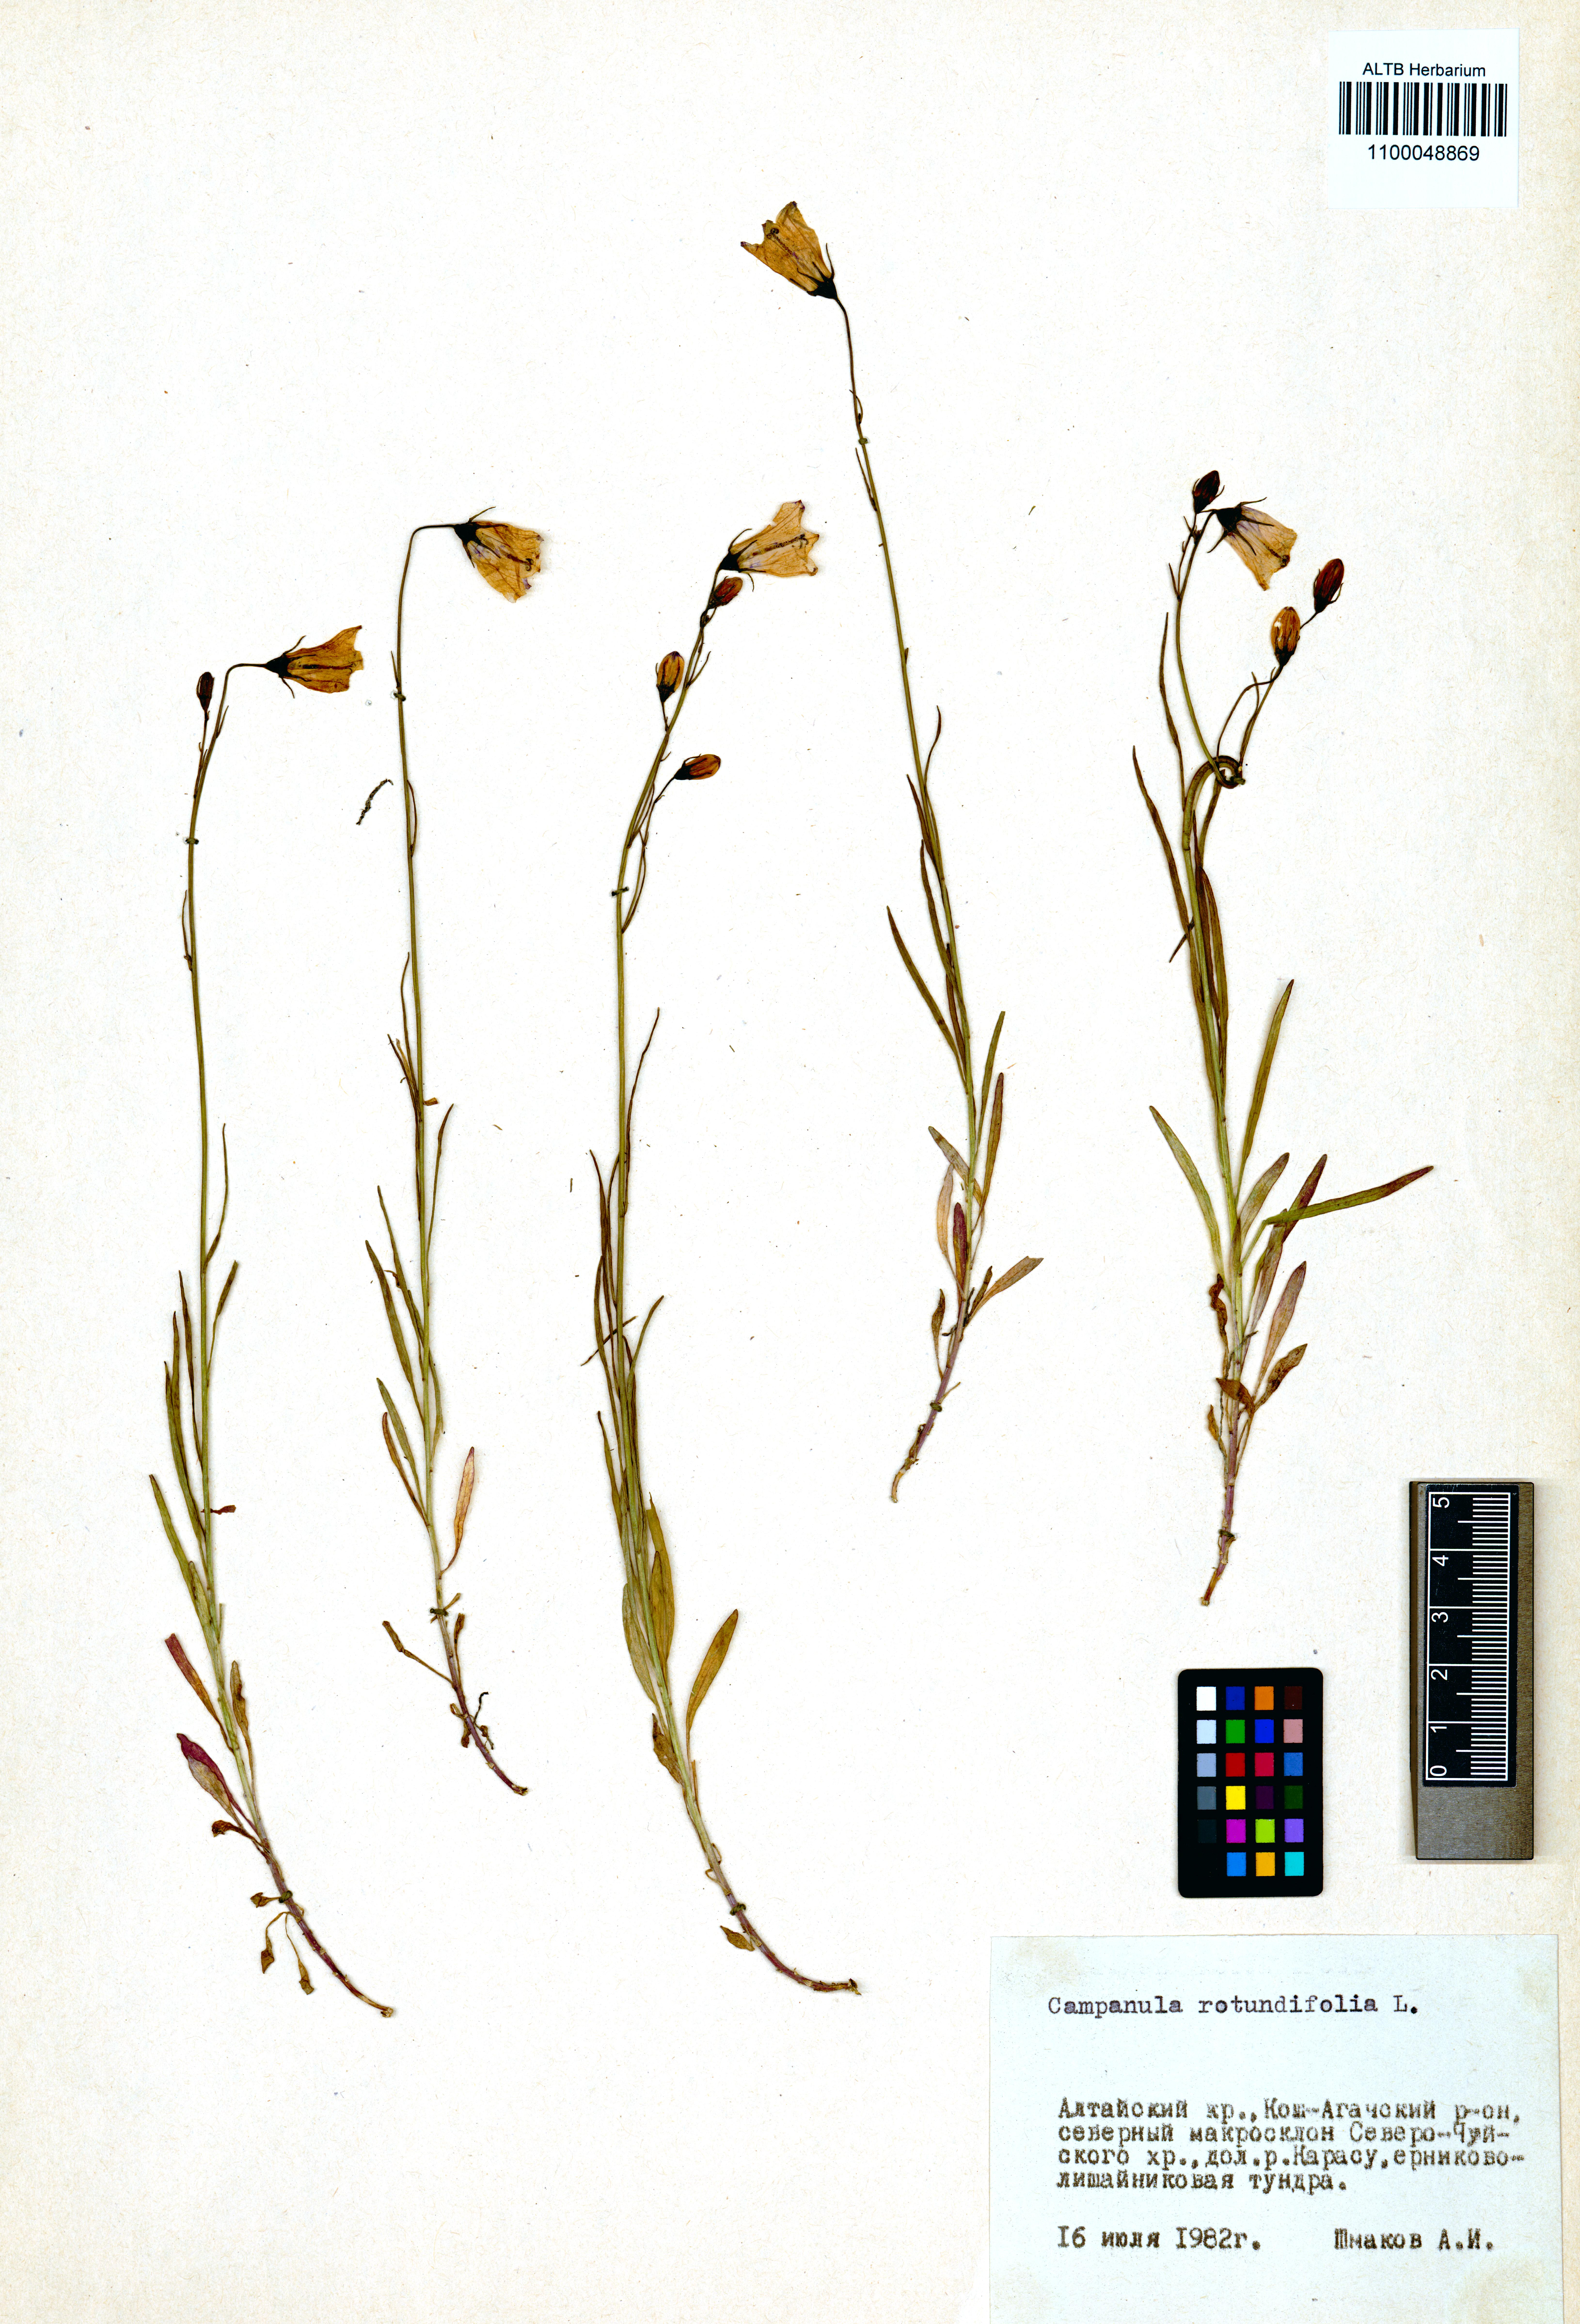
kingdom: Plantae
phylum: Tracheophyta
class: Magnoliopsida
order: Asterales
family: Campanulaceae
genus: Campanula
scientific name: Campanula rotundifolia
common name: Harebell
